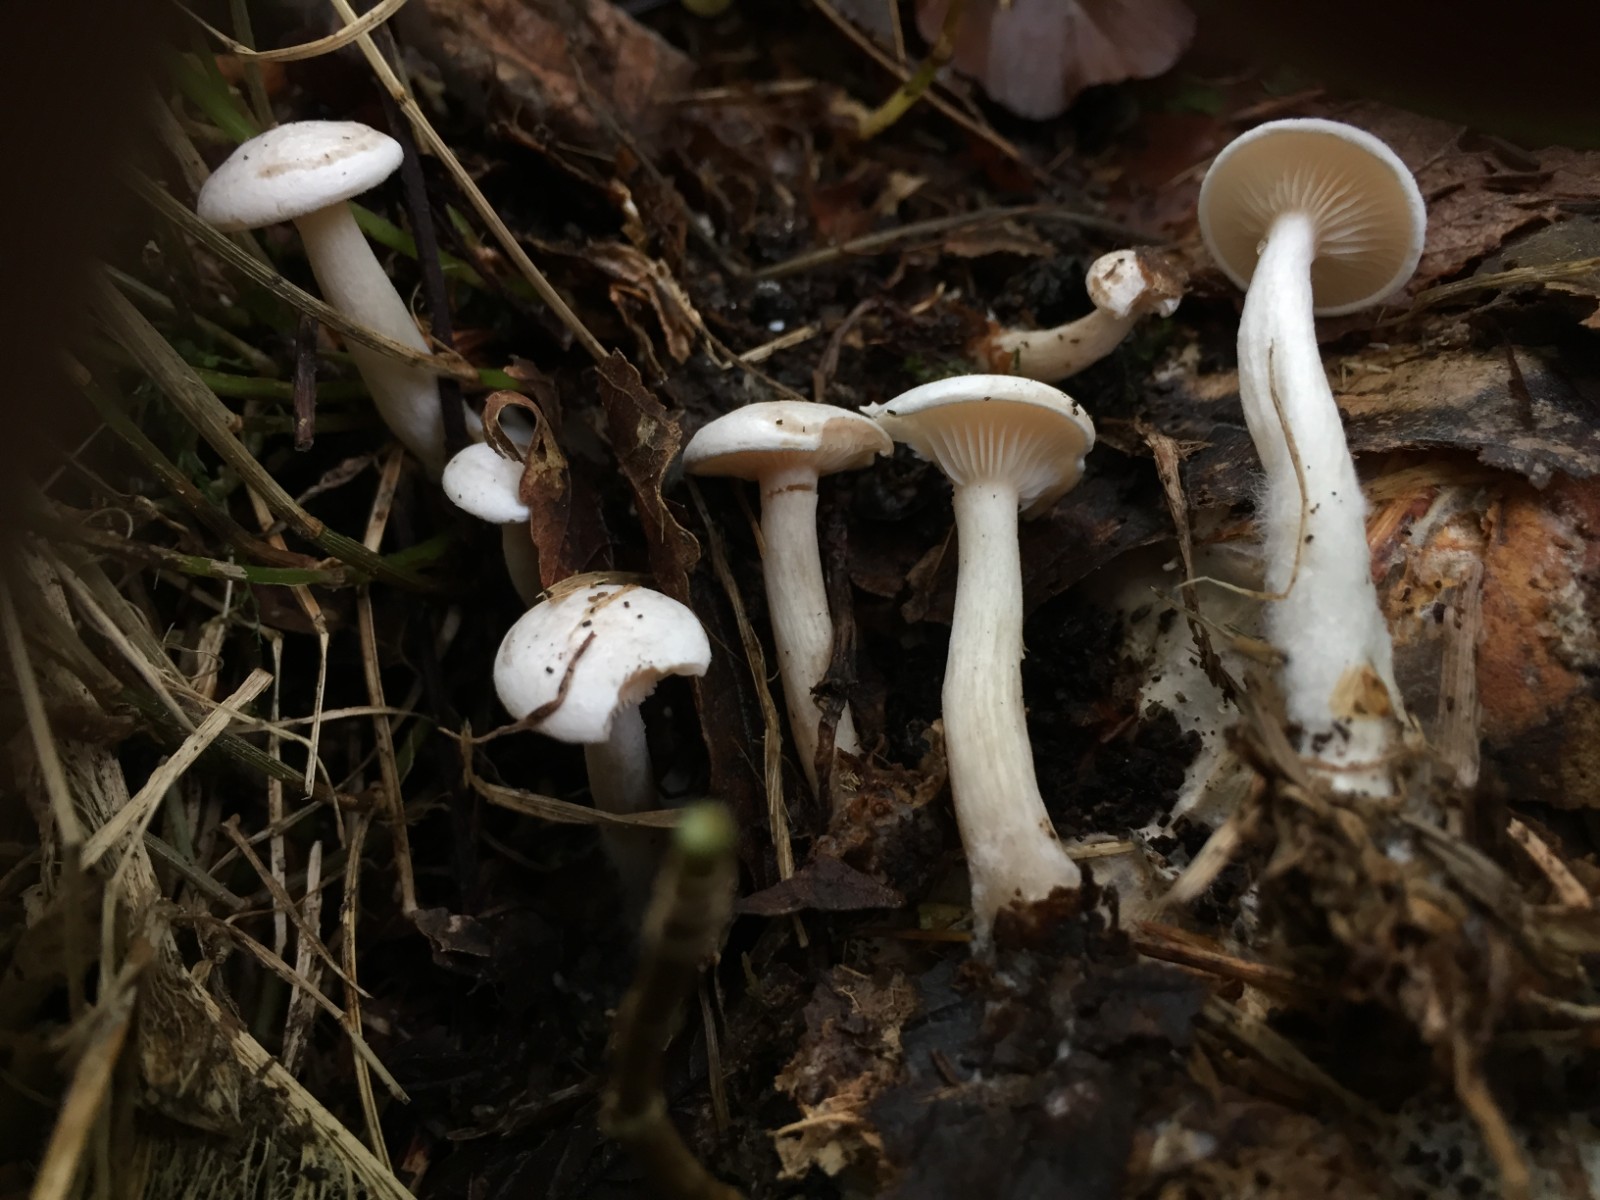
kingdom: Fungi
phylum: Basidiomycota
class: Agaricomycetes
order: Agaricales
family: Tricholomataceae
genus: Leucocybe
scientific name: Leucocybe candicans
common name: kridt-tragthat
